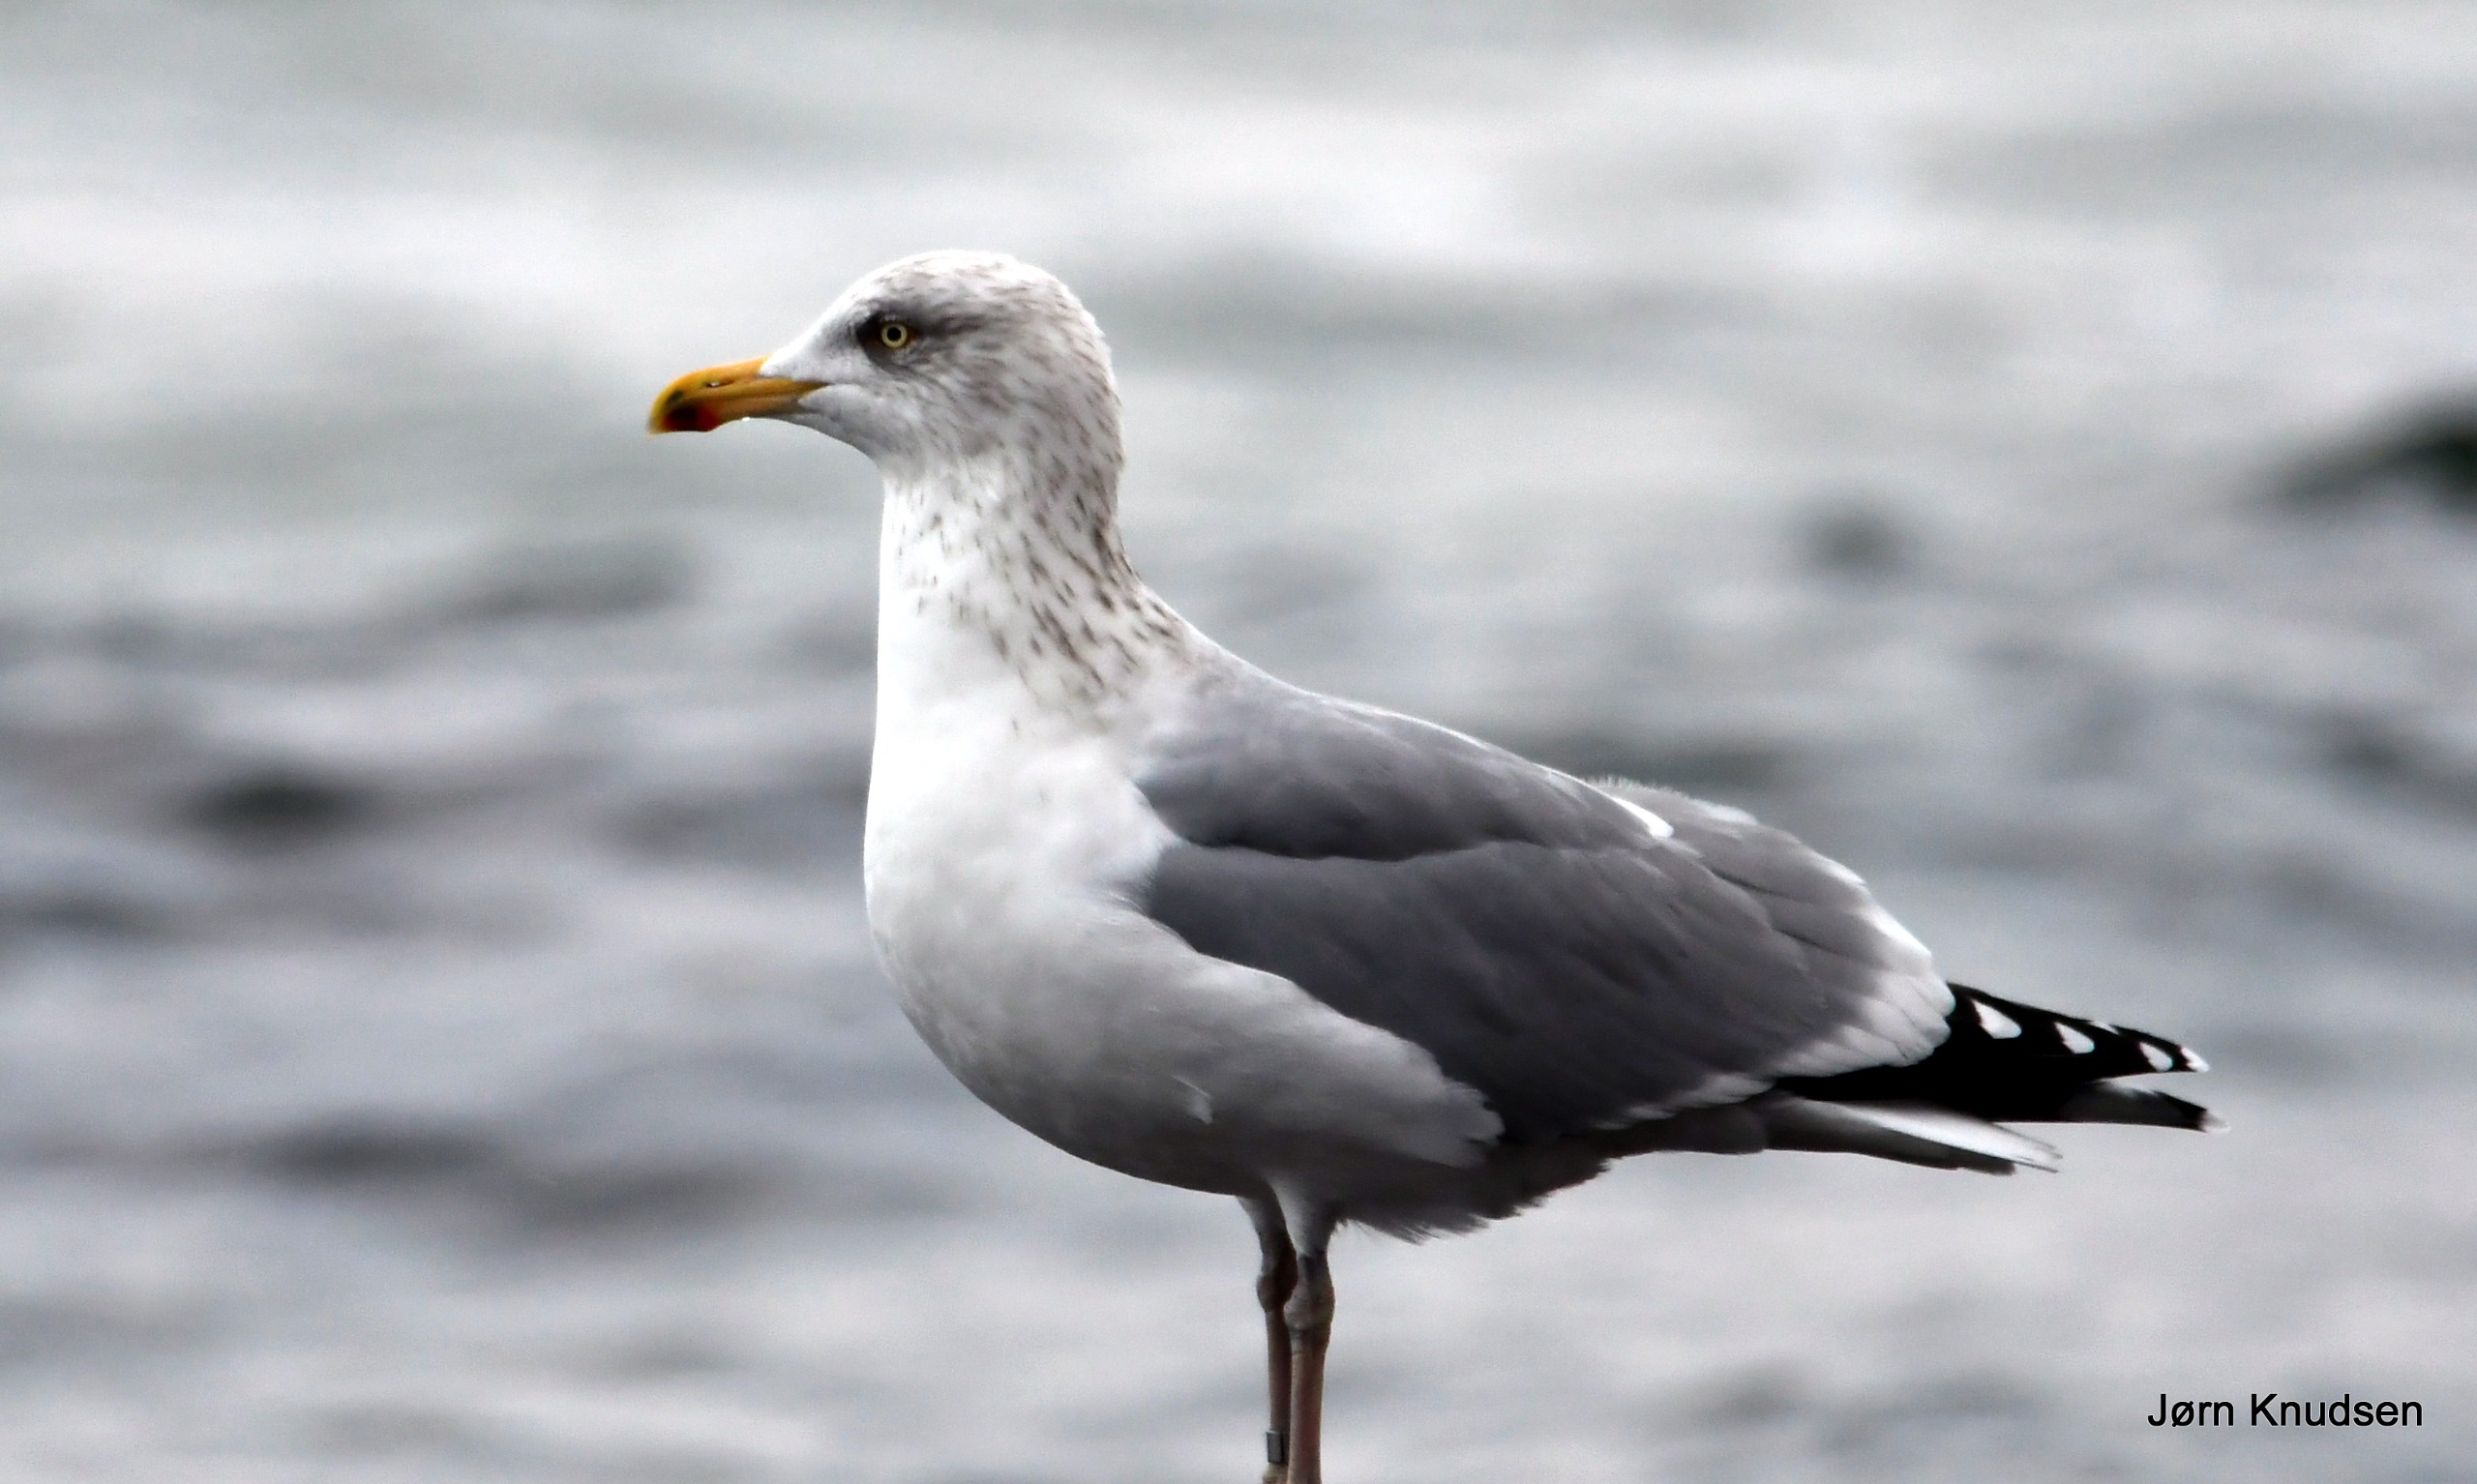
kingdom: Animalia
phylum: Chordata
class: Aves
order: Charadriiformes
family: Laridae
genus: Larus
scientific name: Larus argentatus
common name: Sølvmåge
